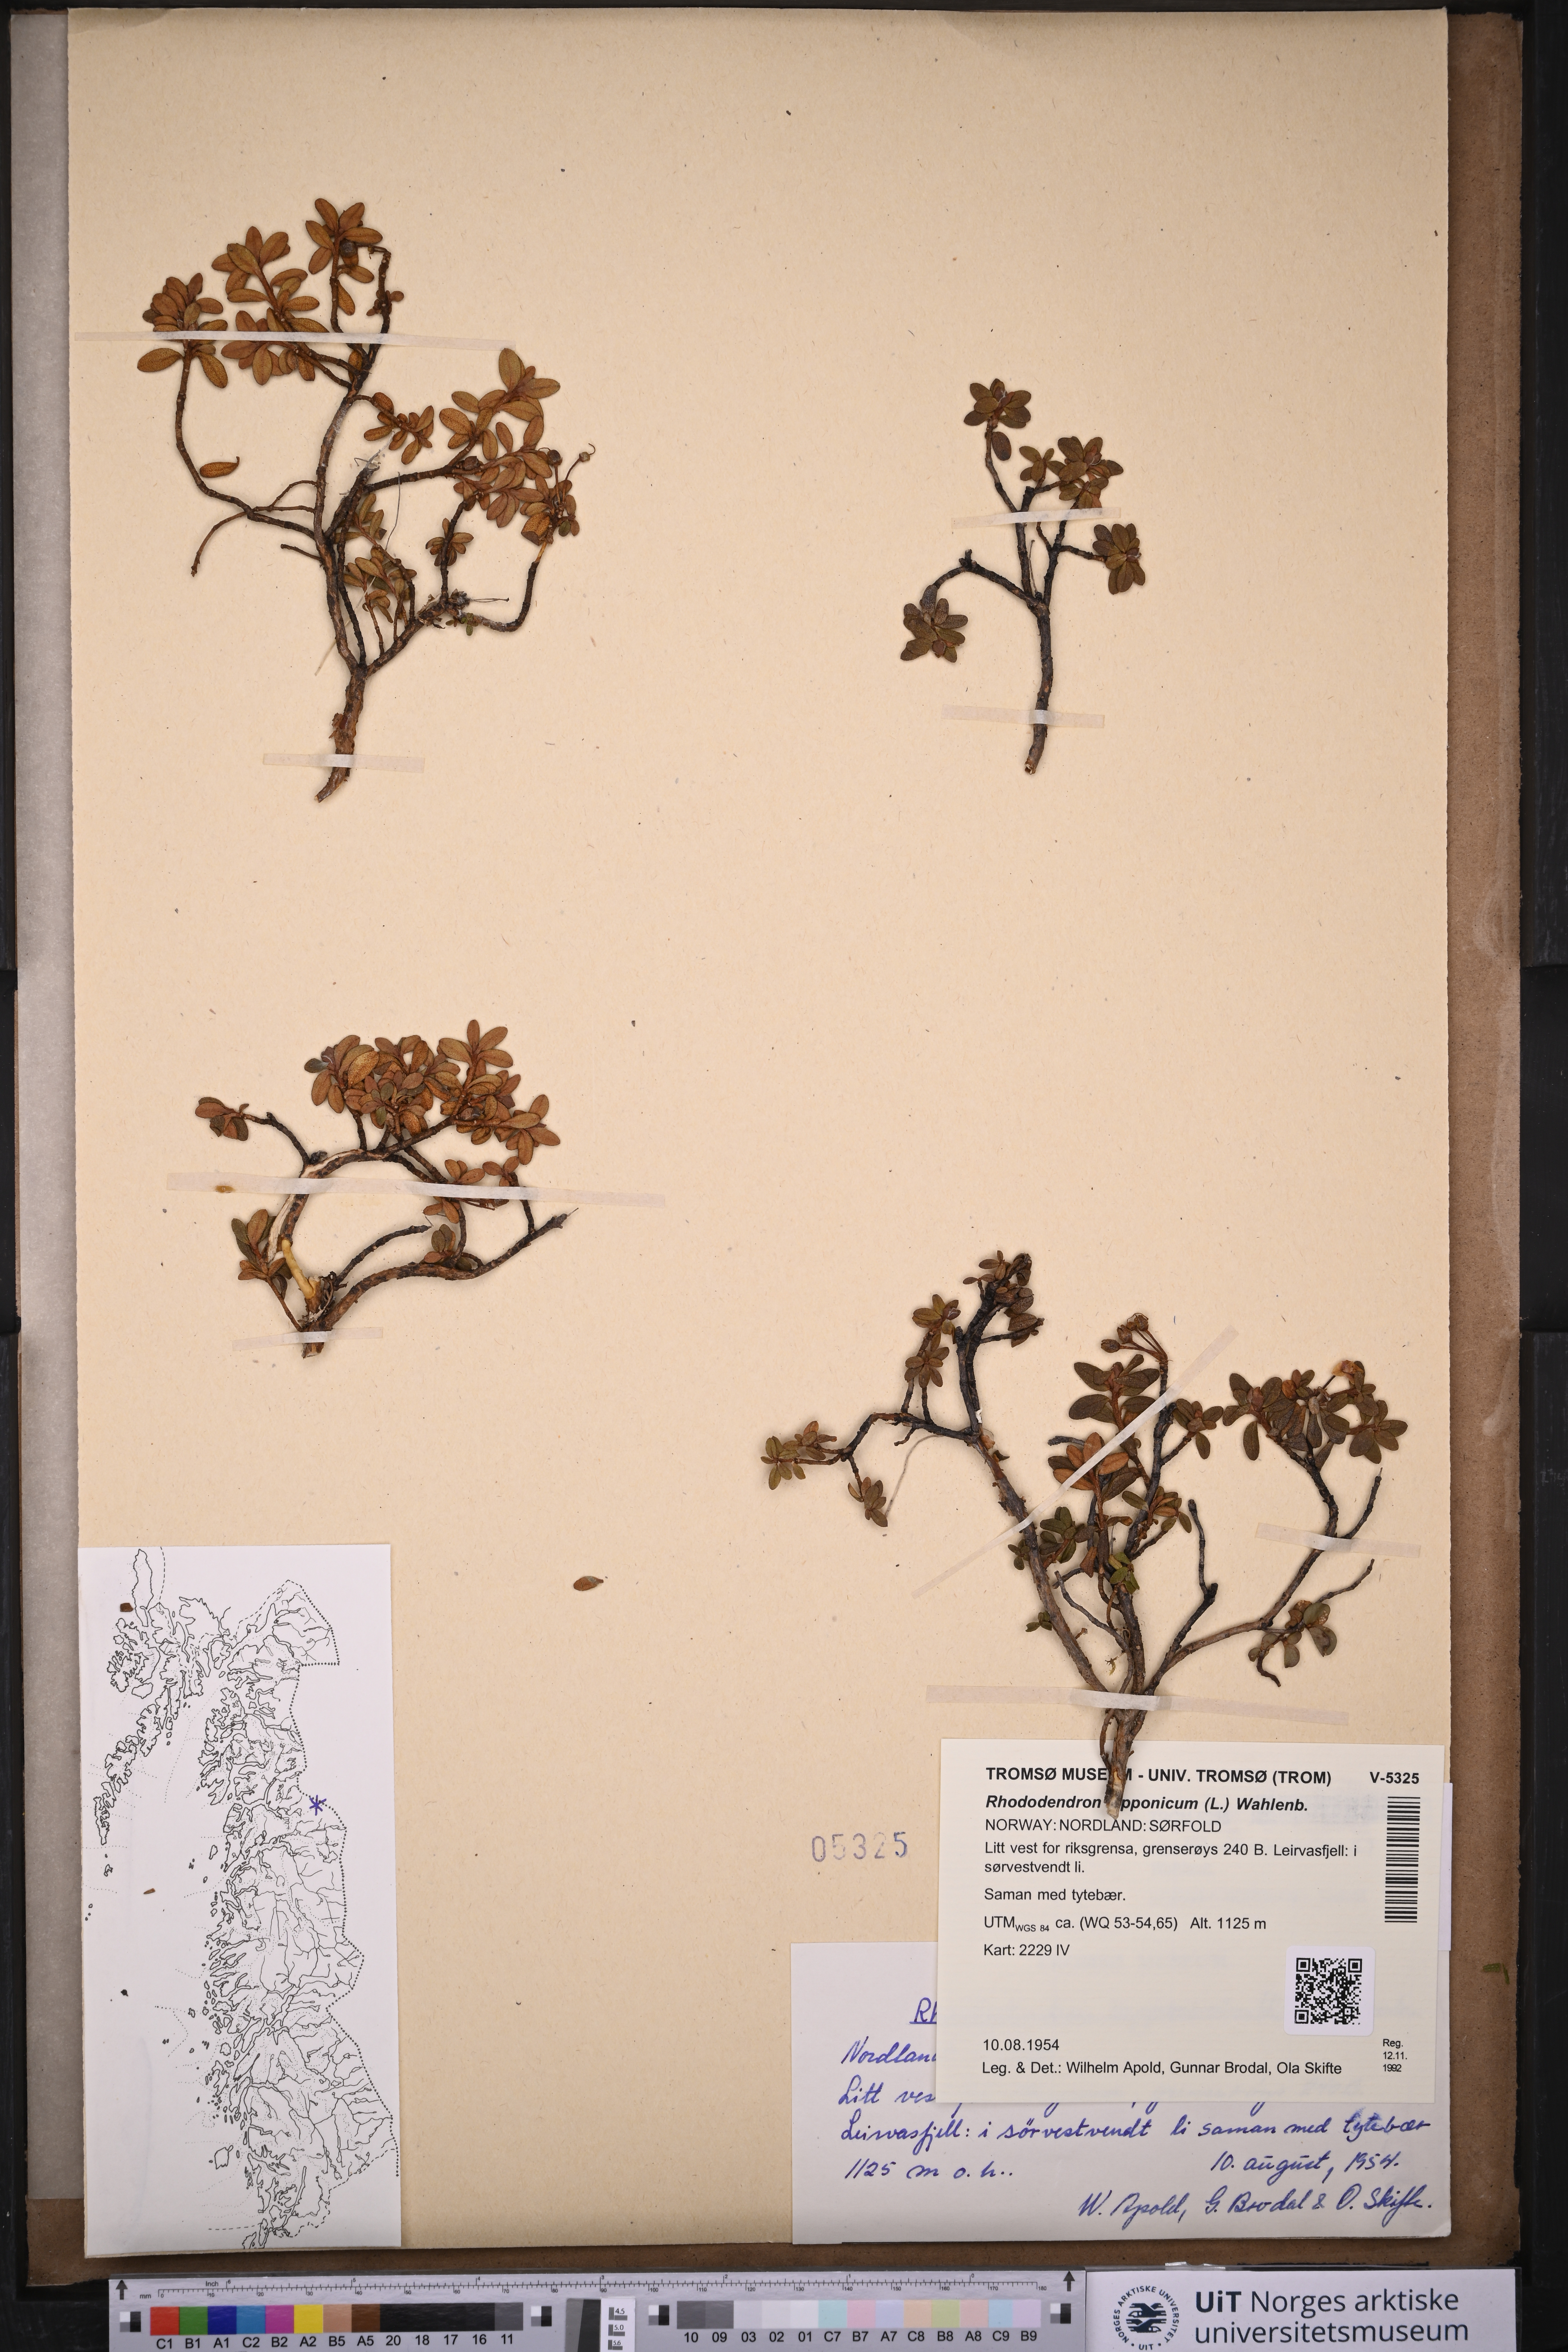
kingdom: Plantae
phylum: Tracheophyta
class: Magnoliopsida
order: Ericales
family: Ericaceae
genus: Rhododendron
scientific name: Rhododendron lapponicum
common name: Lapland rhododendron
